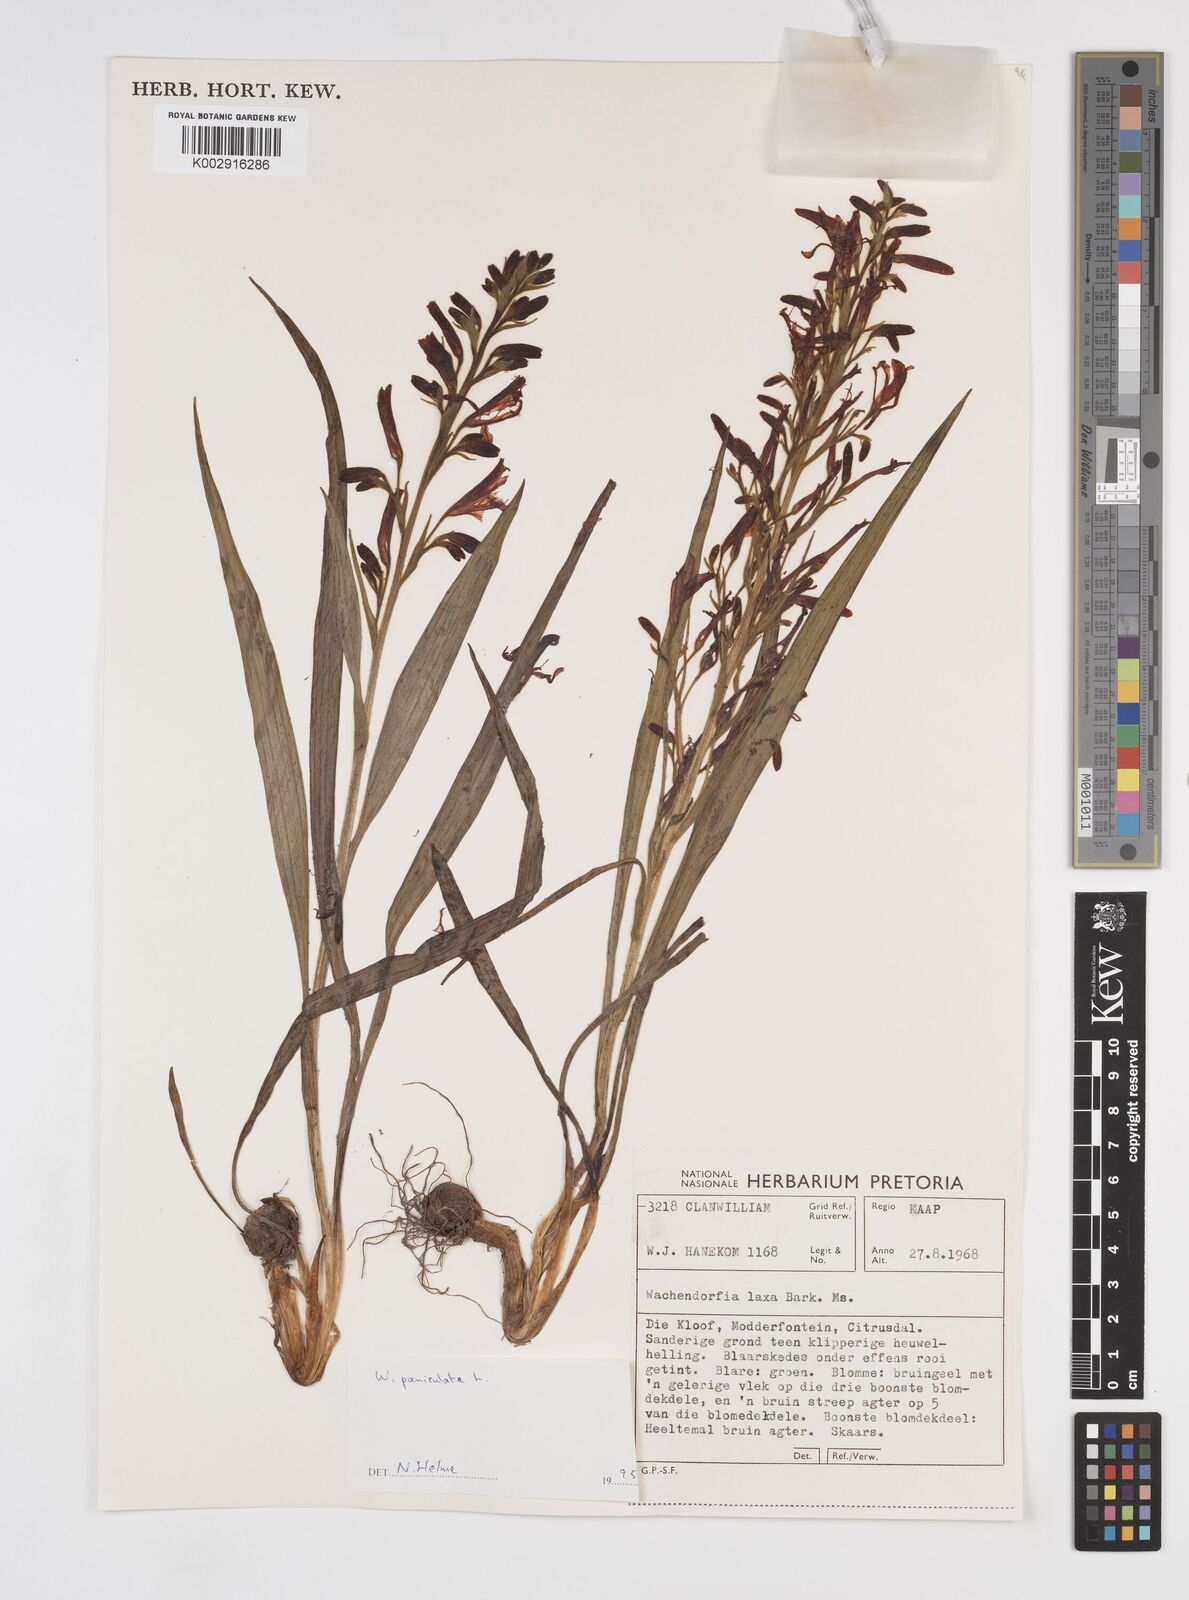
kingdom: Plantae
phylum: Tracheophyta
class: Liliopsida
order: Commelinales
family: Haemodoraceae
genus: Wachendorfia
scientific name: Wachendorfia paniculata
